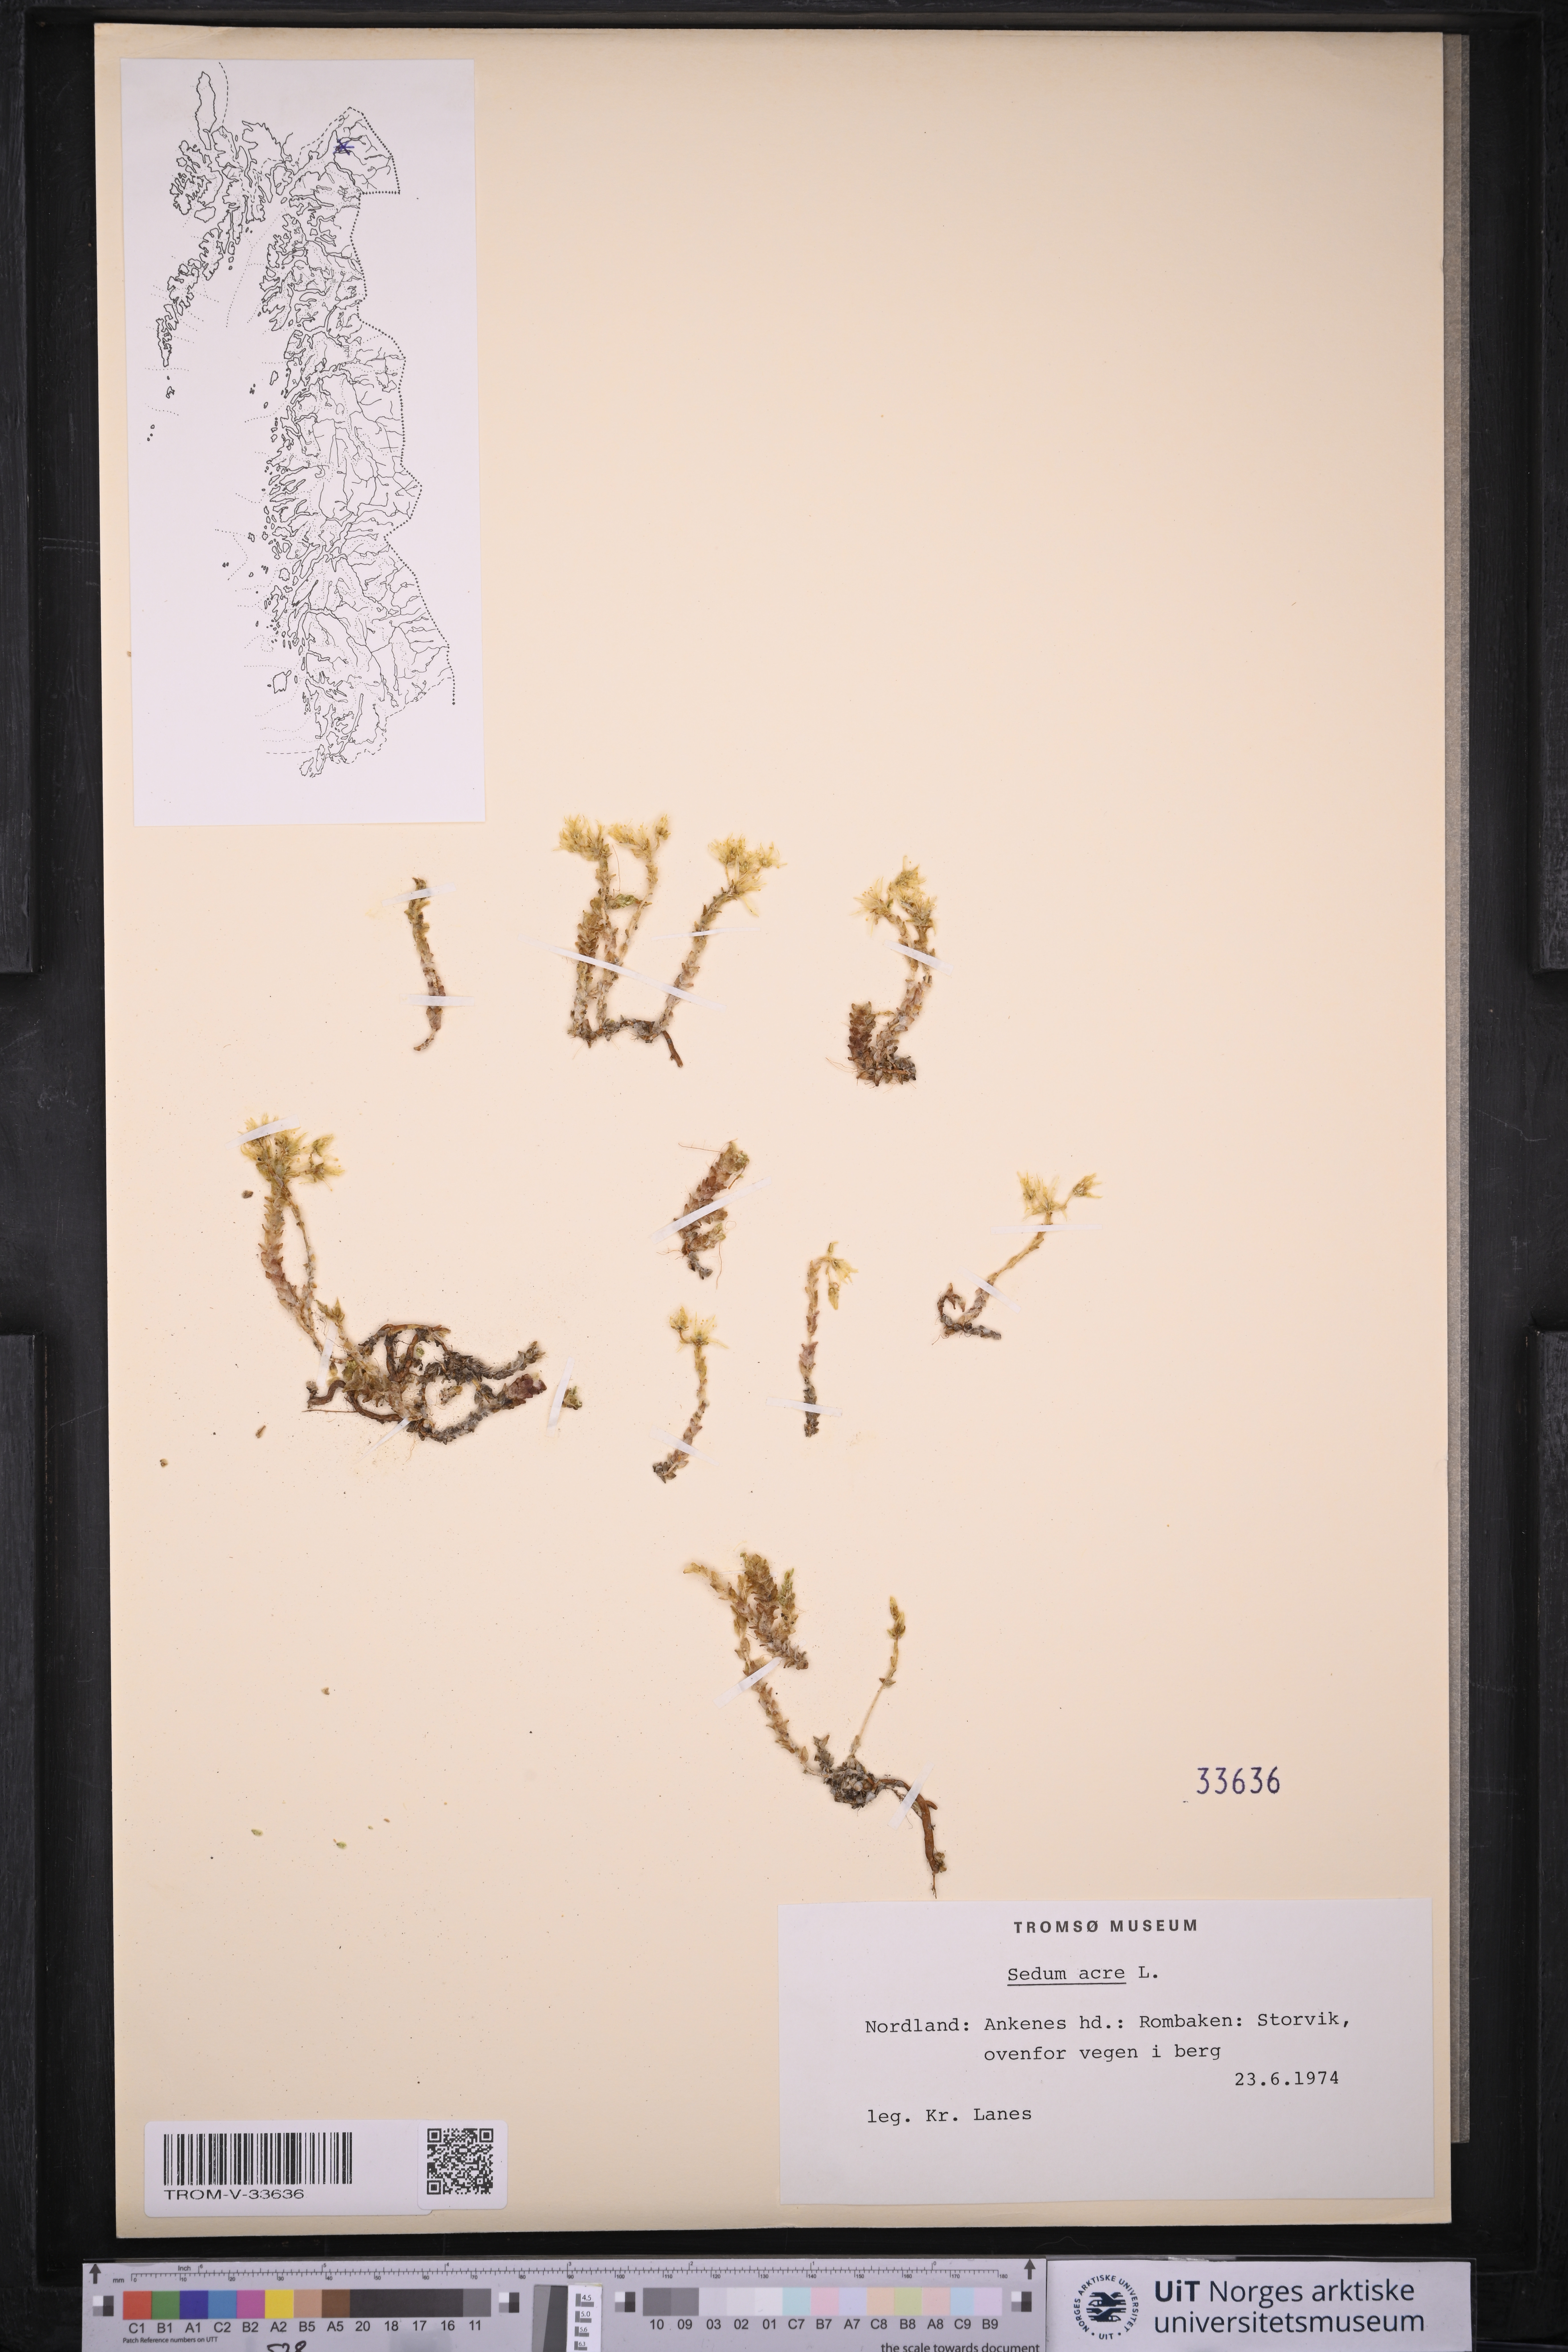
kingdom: Plantae
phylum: Tracheophyta
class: Magnoliopsida
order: Saxifragales
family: Crassulaceae
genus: Sedum
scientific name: Sedum acre
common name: Biting stonecrop
